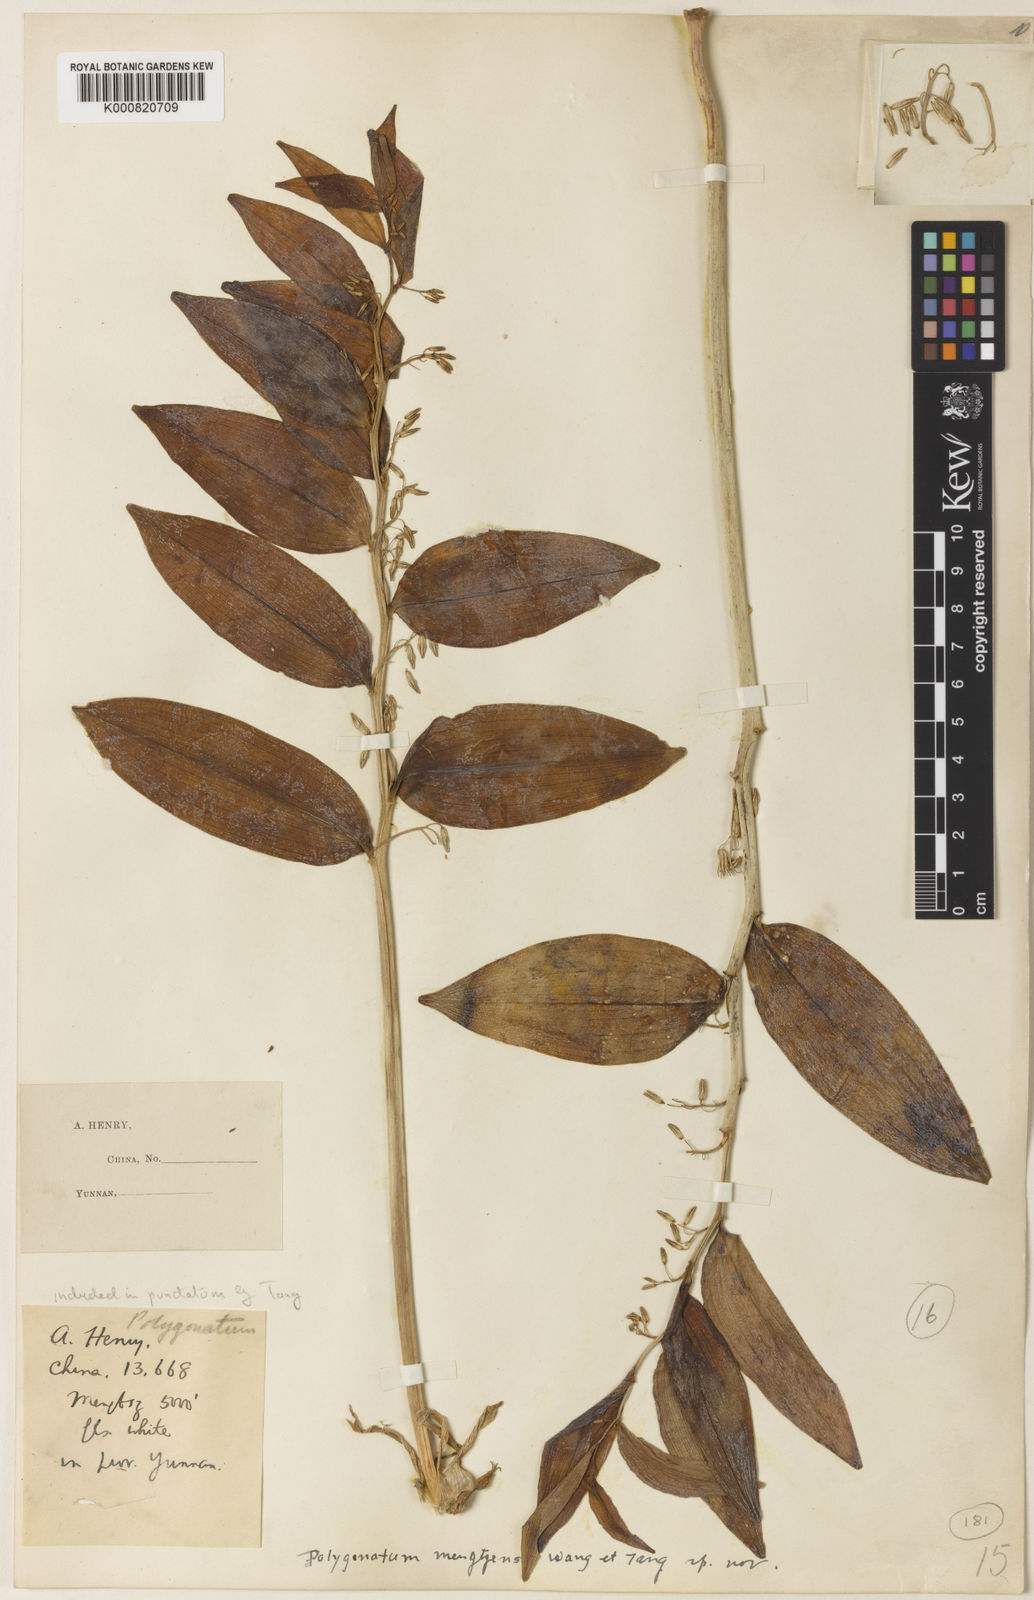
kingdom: Plantae
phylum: Tracheophyta
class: Liliopsida
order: Asparagales
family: Asparagaceae
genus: Polygonatum
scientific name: Polygonatum mengtzense
